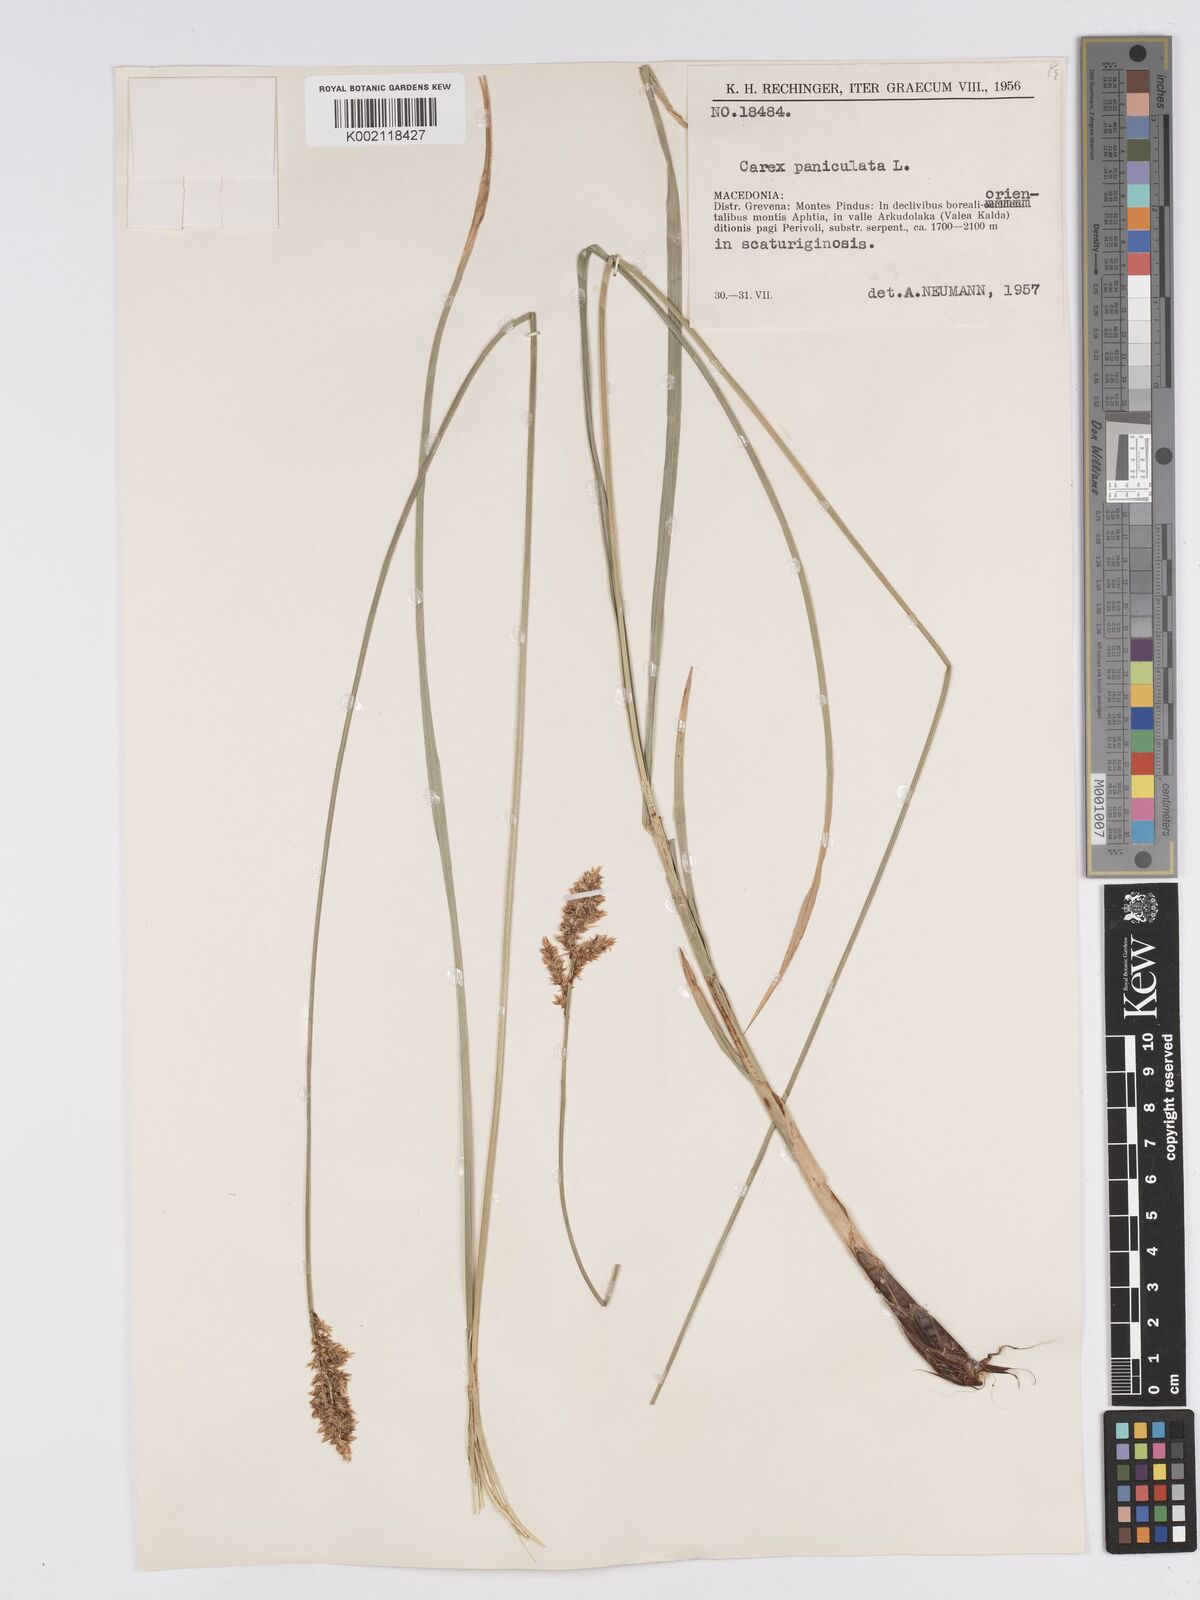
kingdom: Plantae
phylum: Tracheophyta
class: Liliopsida
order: Poales
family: Cyperaceae
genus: Carex
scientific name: Carex paniculata
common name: Greater tussock-sedge
